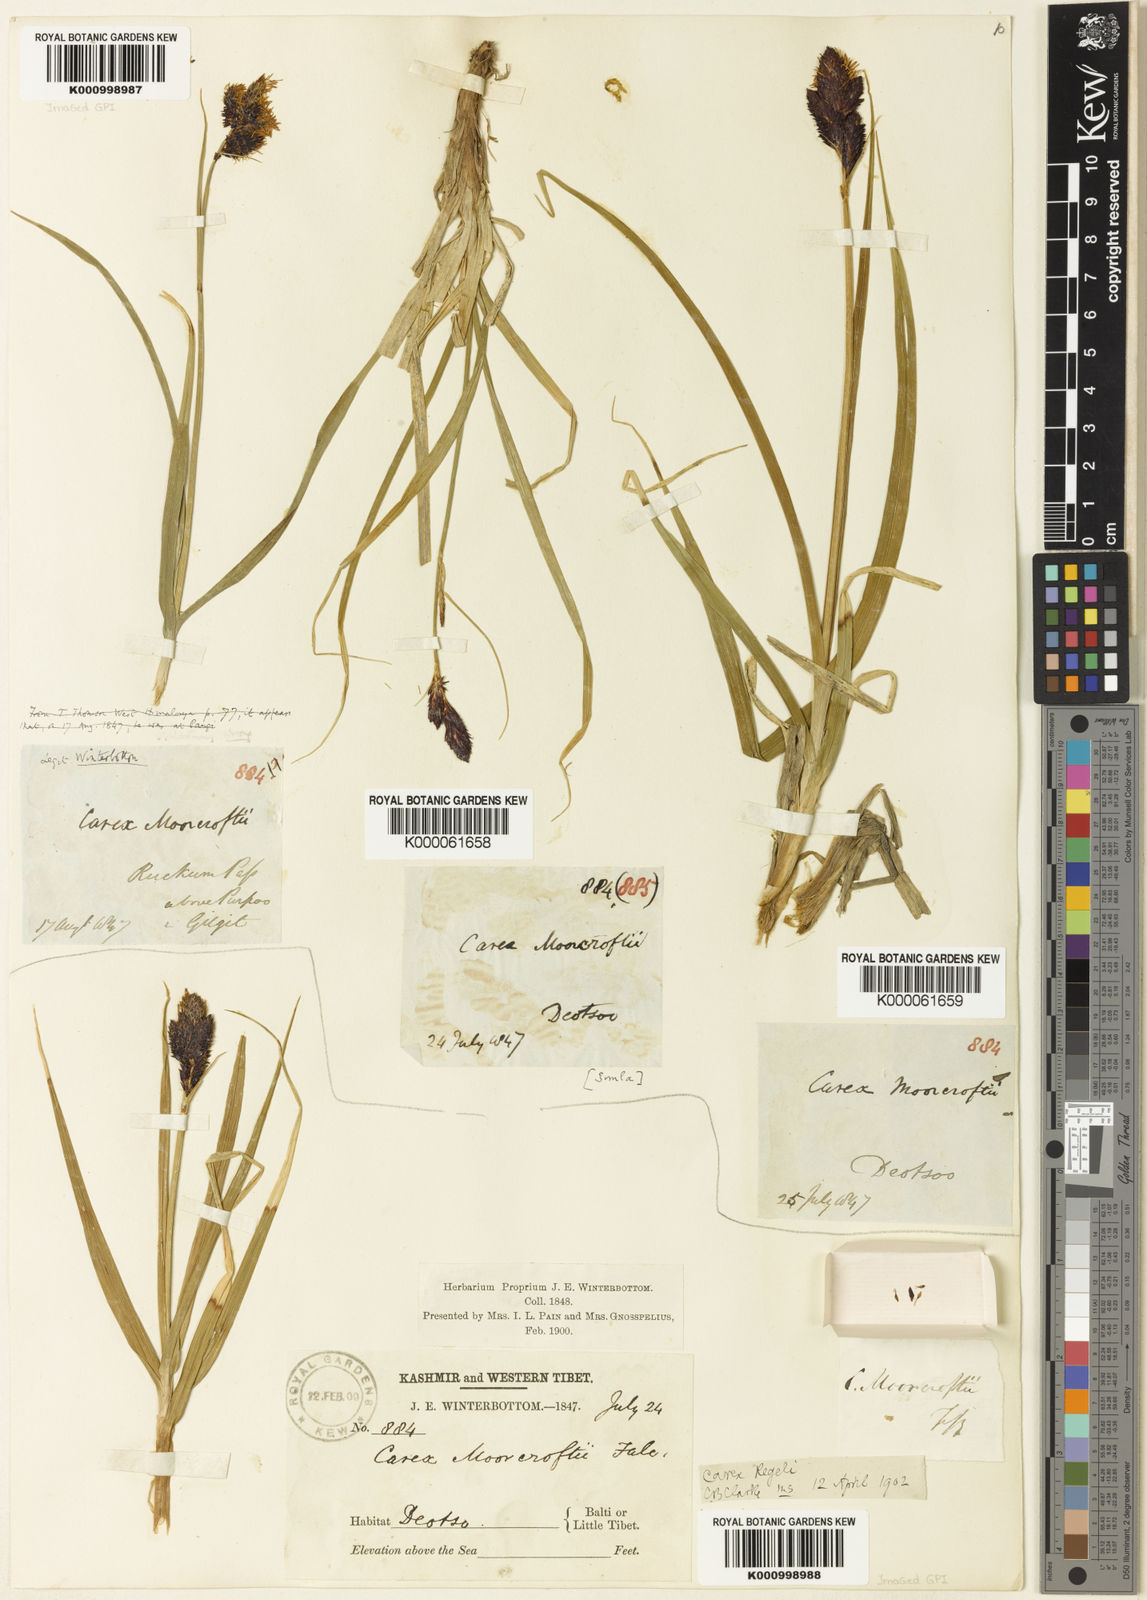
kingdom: Plantae
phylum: Tracheophyta
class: Liliopsida
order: Poales
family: Cyperaceae
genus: Carex
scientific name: Carex melanantha
